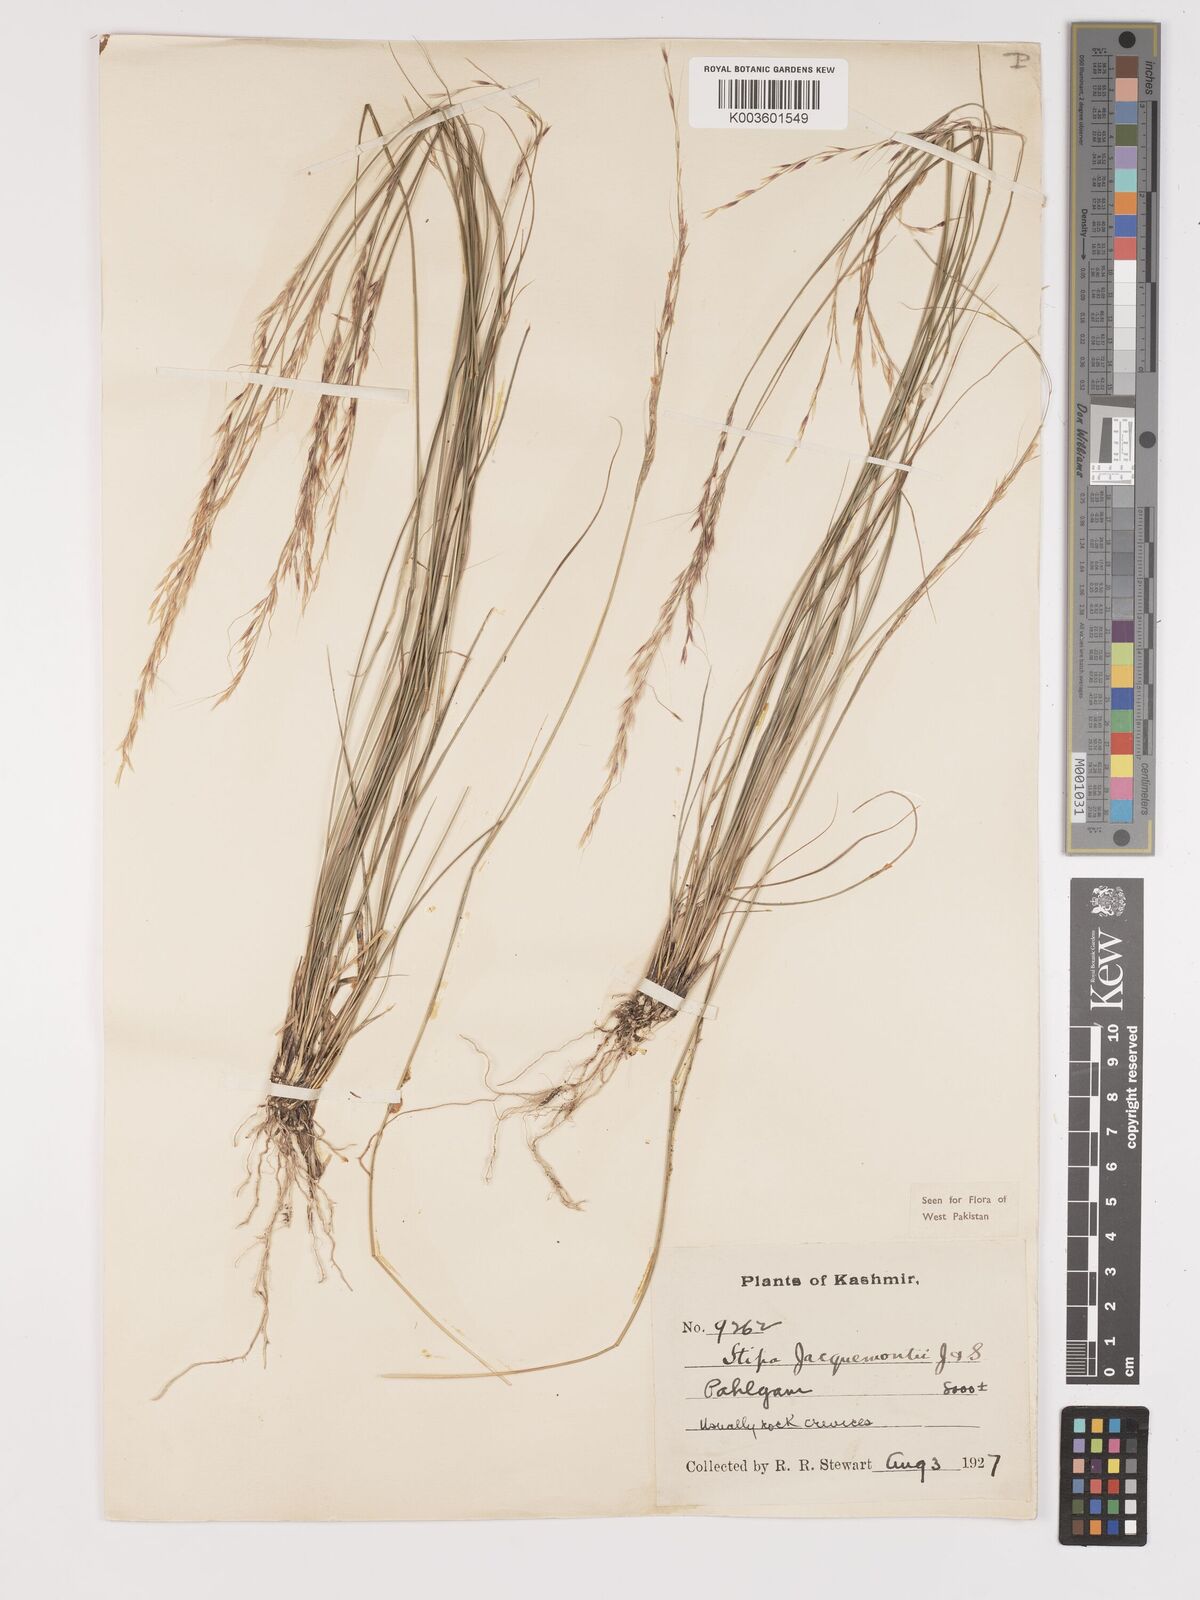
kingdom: Plantae
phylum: Tracheophyta
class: Liliopsida
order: Poales
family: Poaceae
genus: Achnatherum
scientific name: Achnatherum jacquemontii
